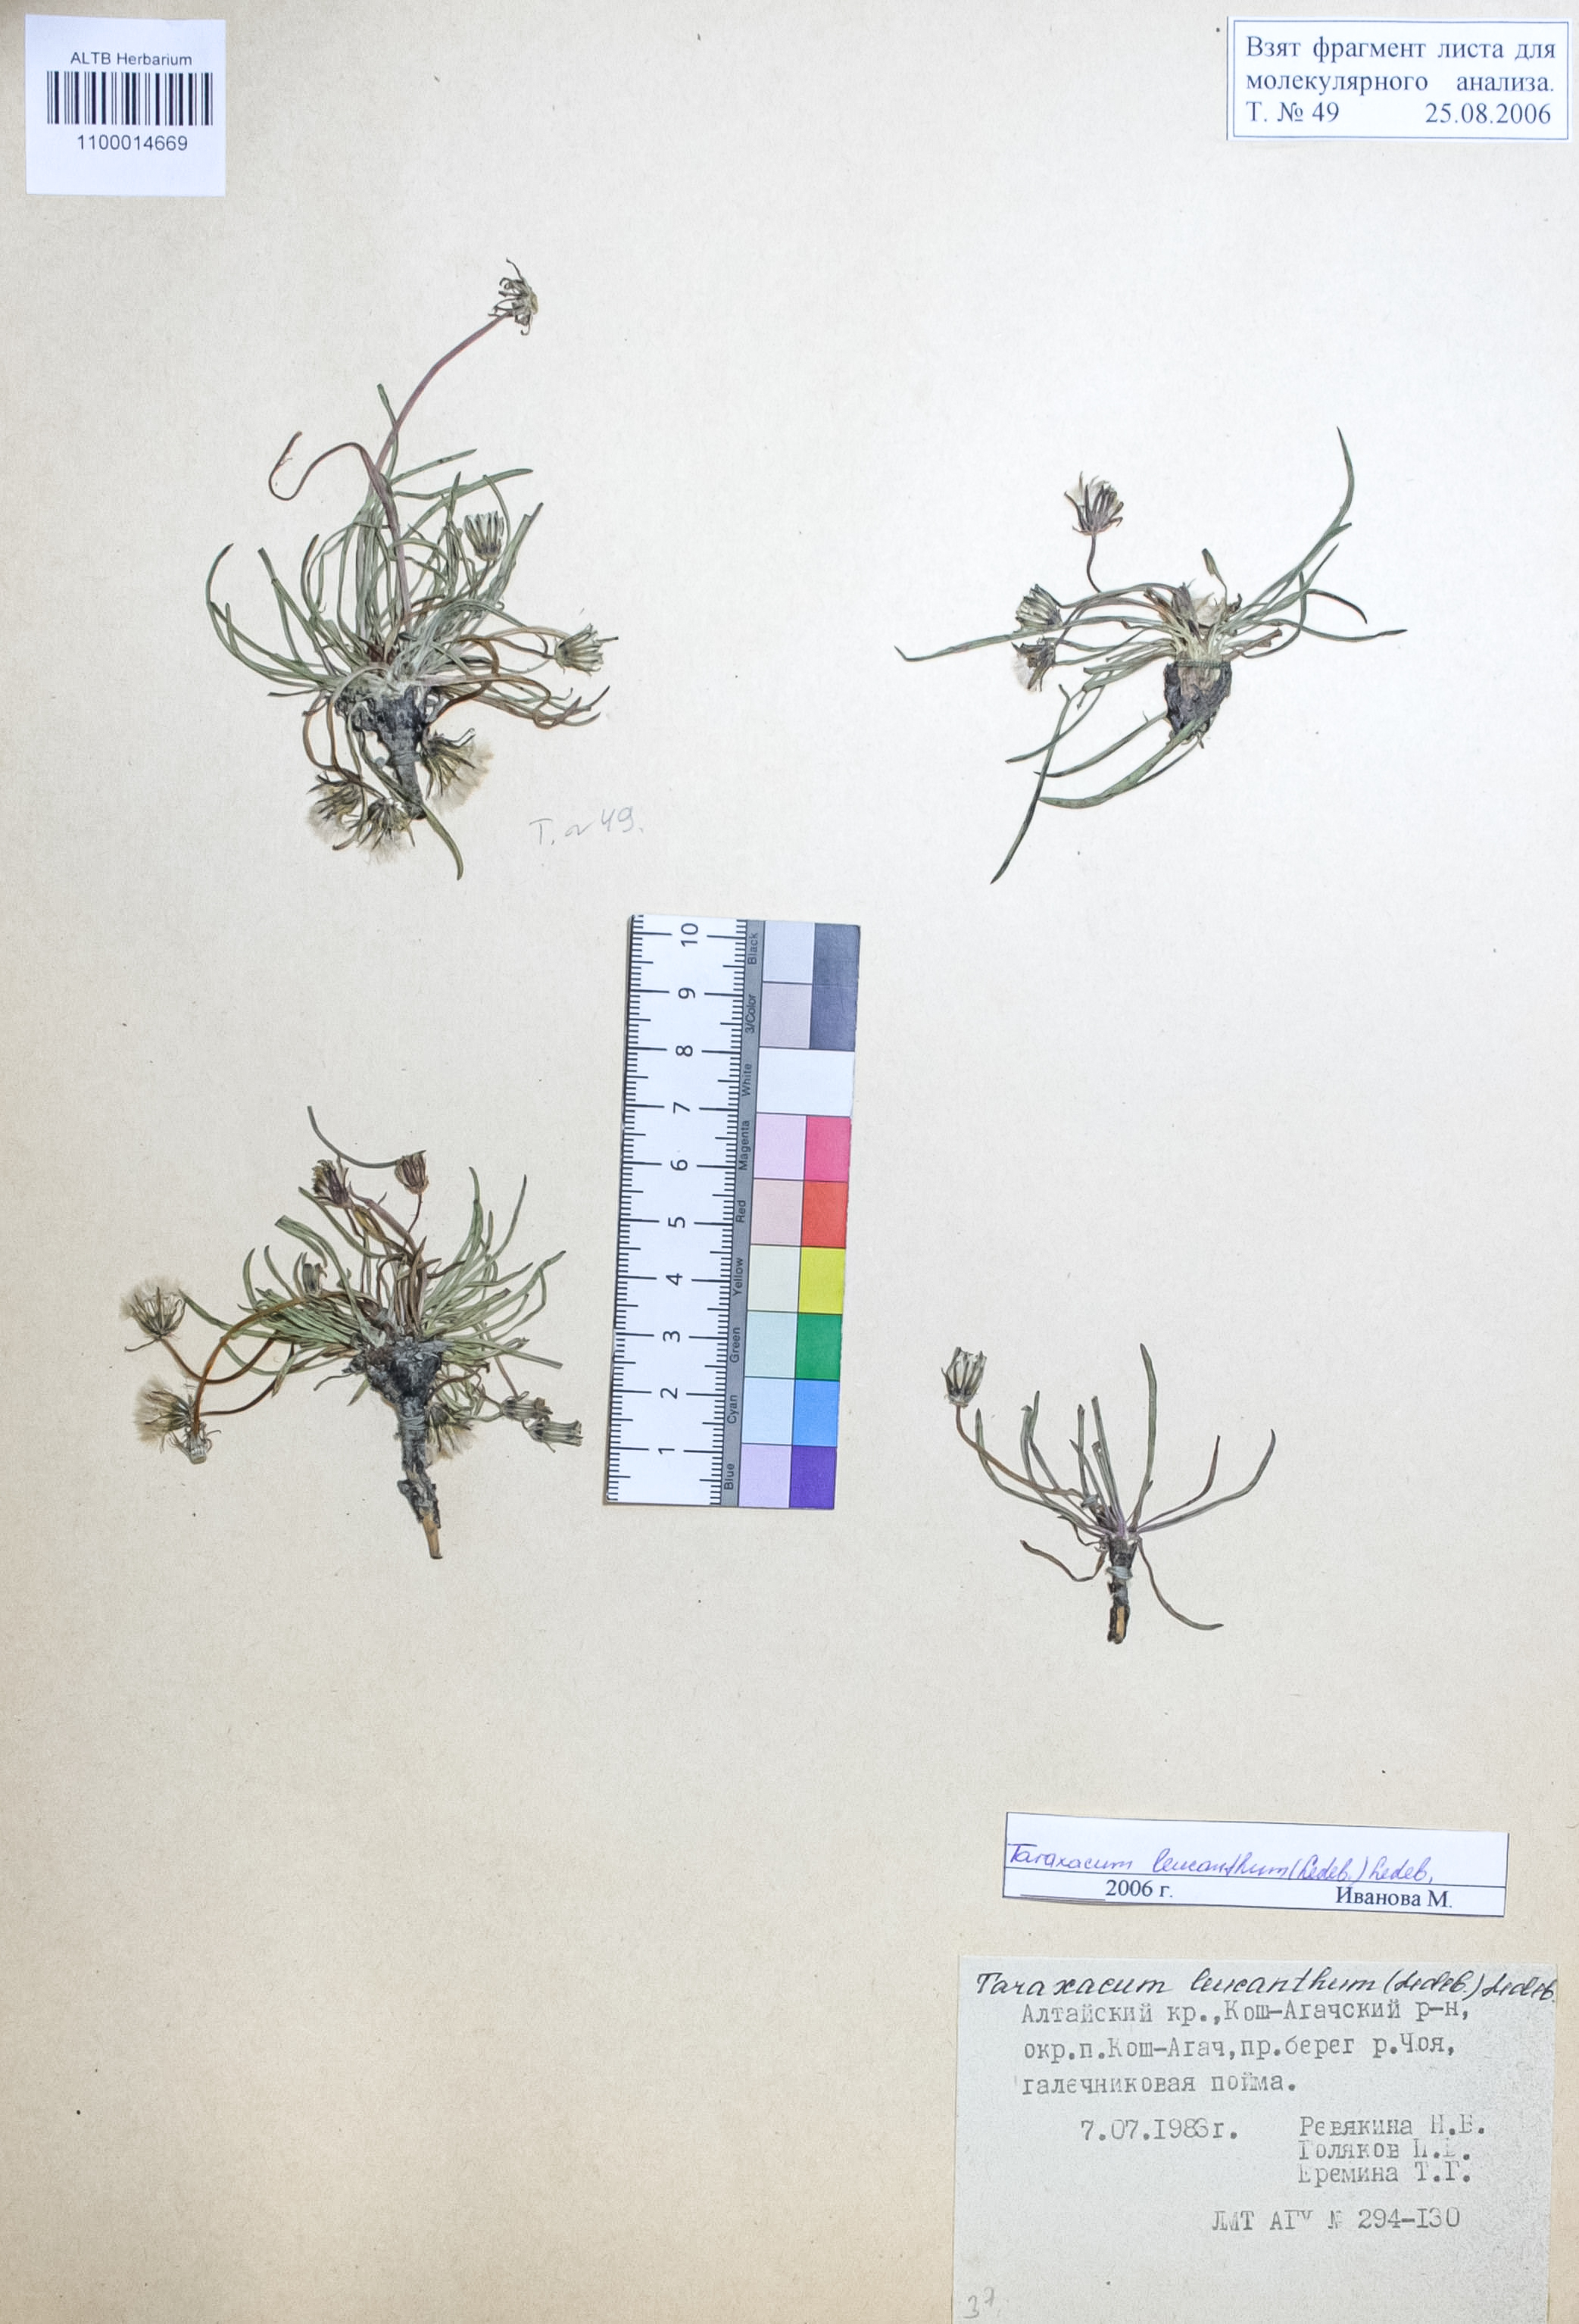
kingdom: Plantae
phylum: Tracheophyta
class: Magnoliopsida
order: Asterales
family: Asteraceae
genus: Taraxacum
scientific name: Taraxacum leucanthum
